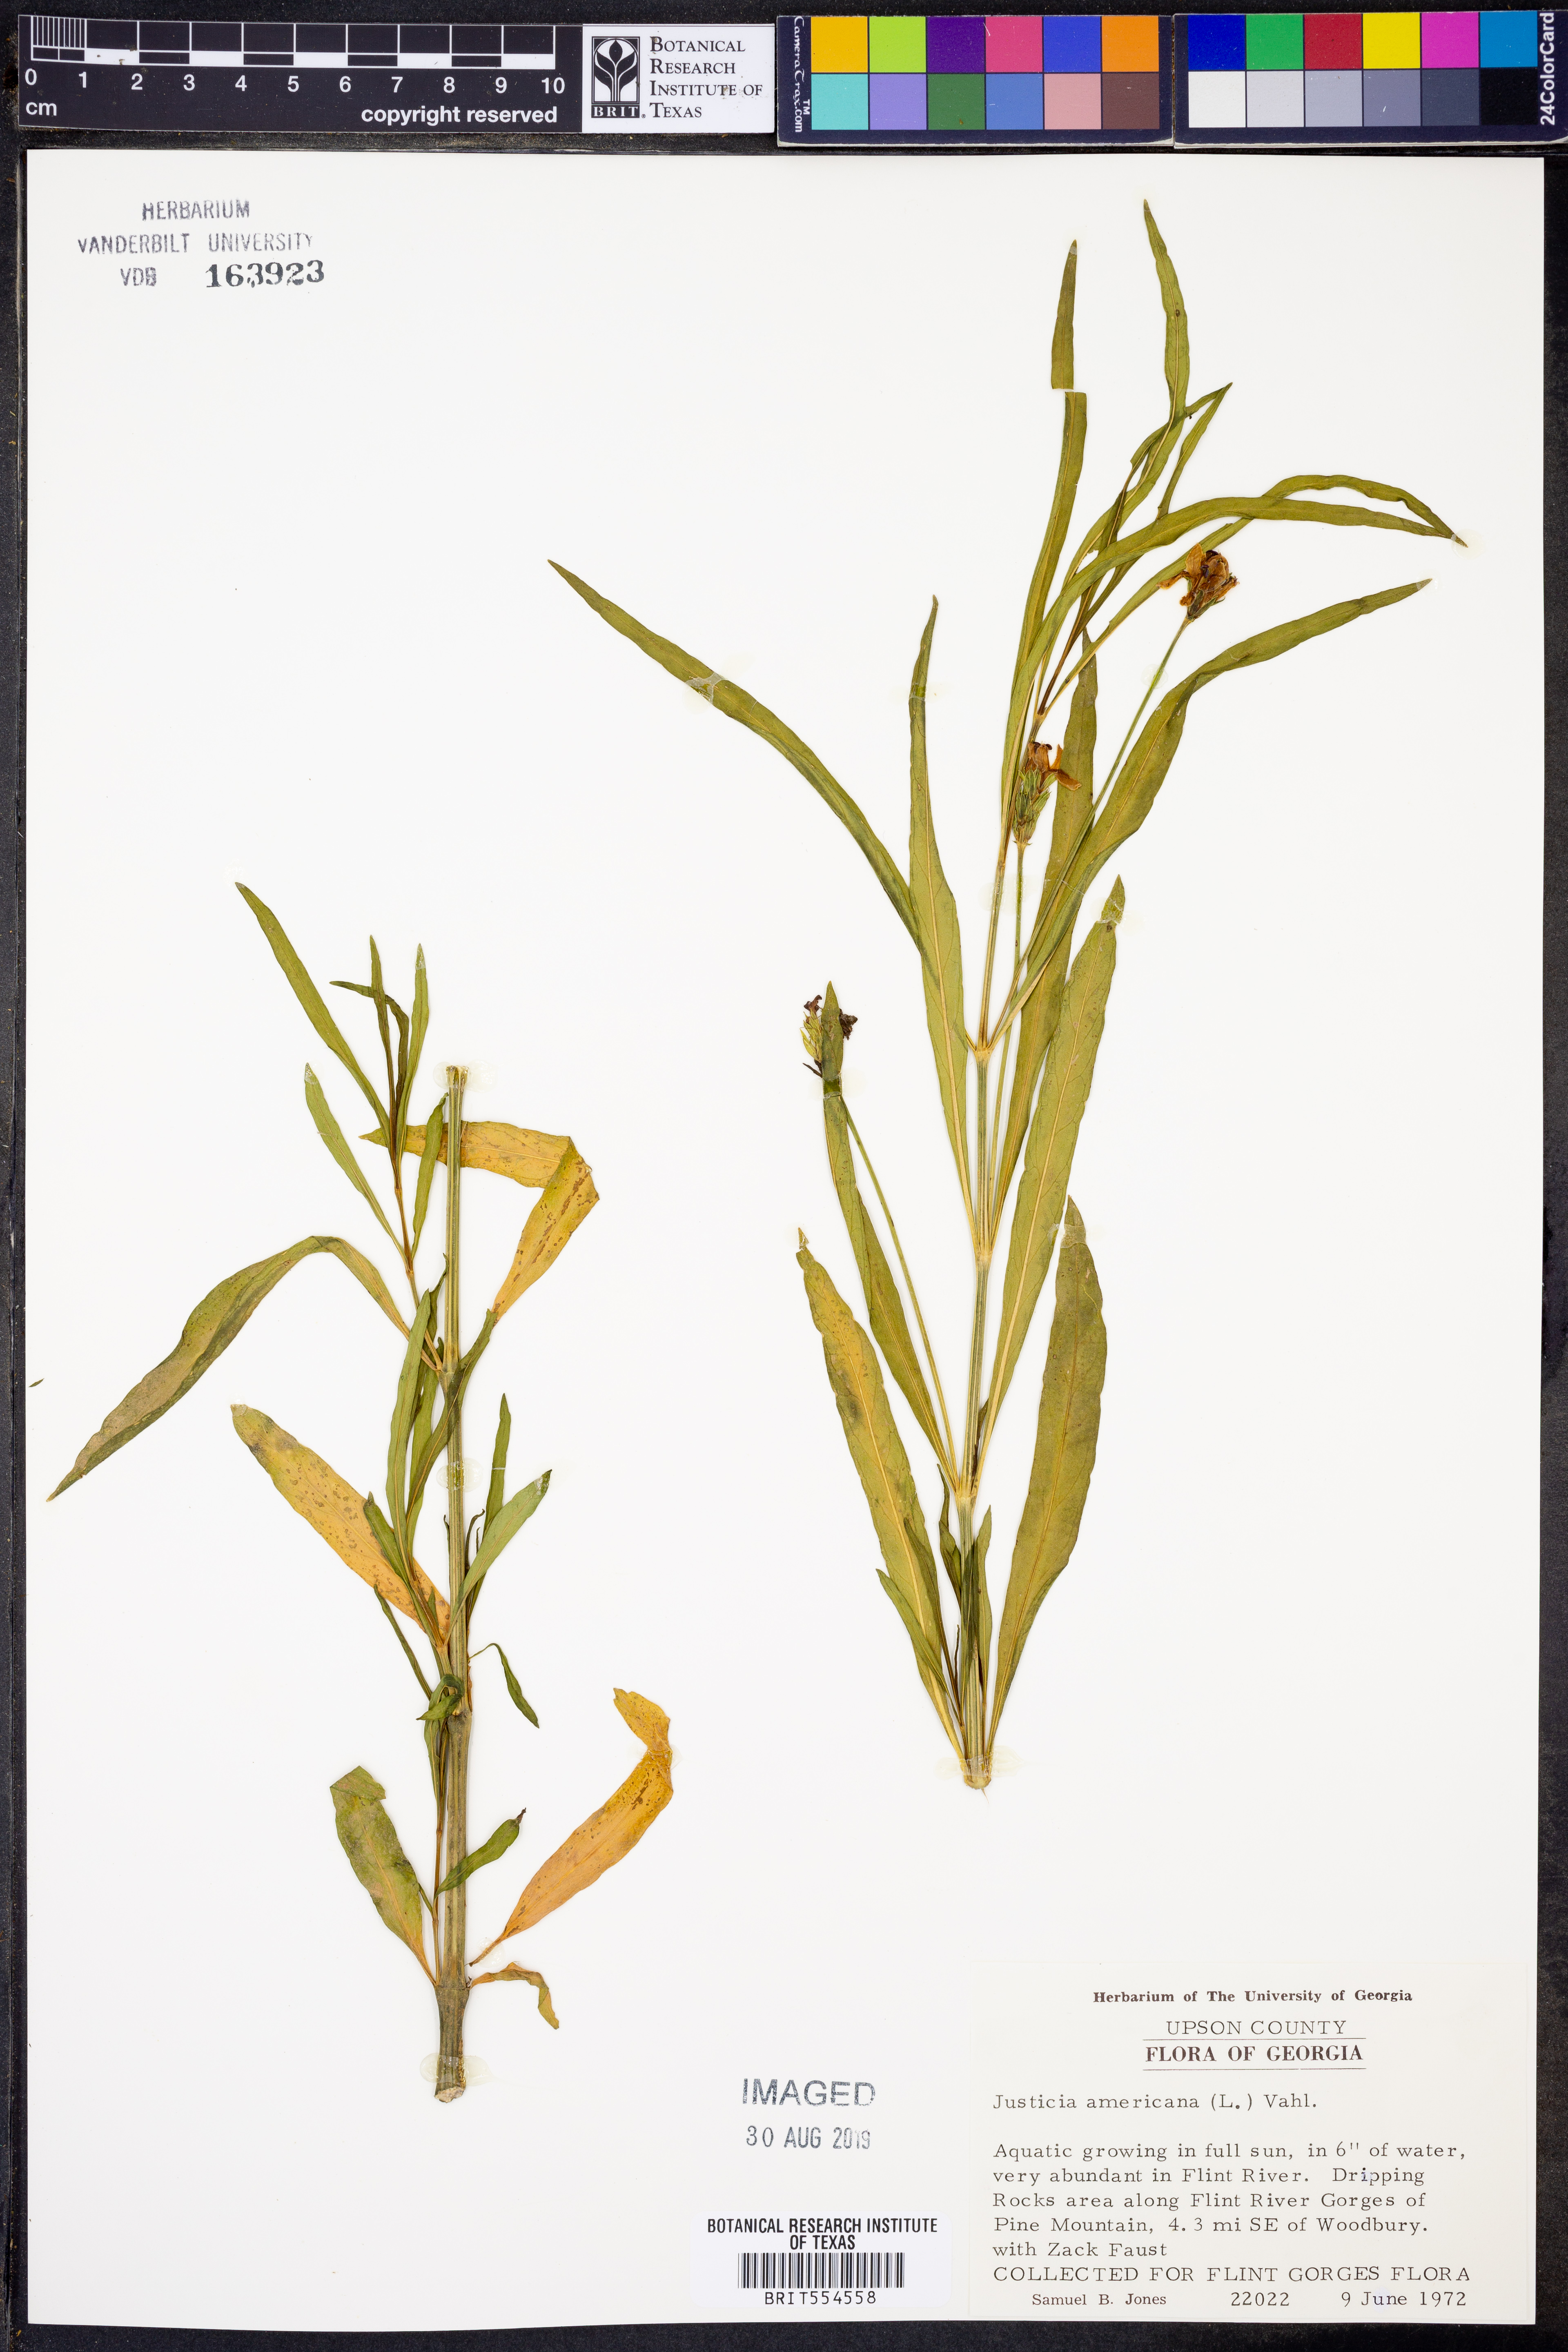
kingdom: Plantae
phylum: Tracheophyta
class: Magnoliopsida
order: Lamiales
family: Acanthaceae
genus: Dianthera
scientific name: Dianthera americana
